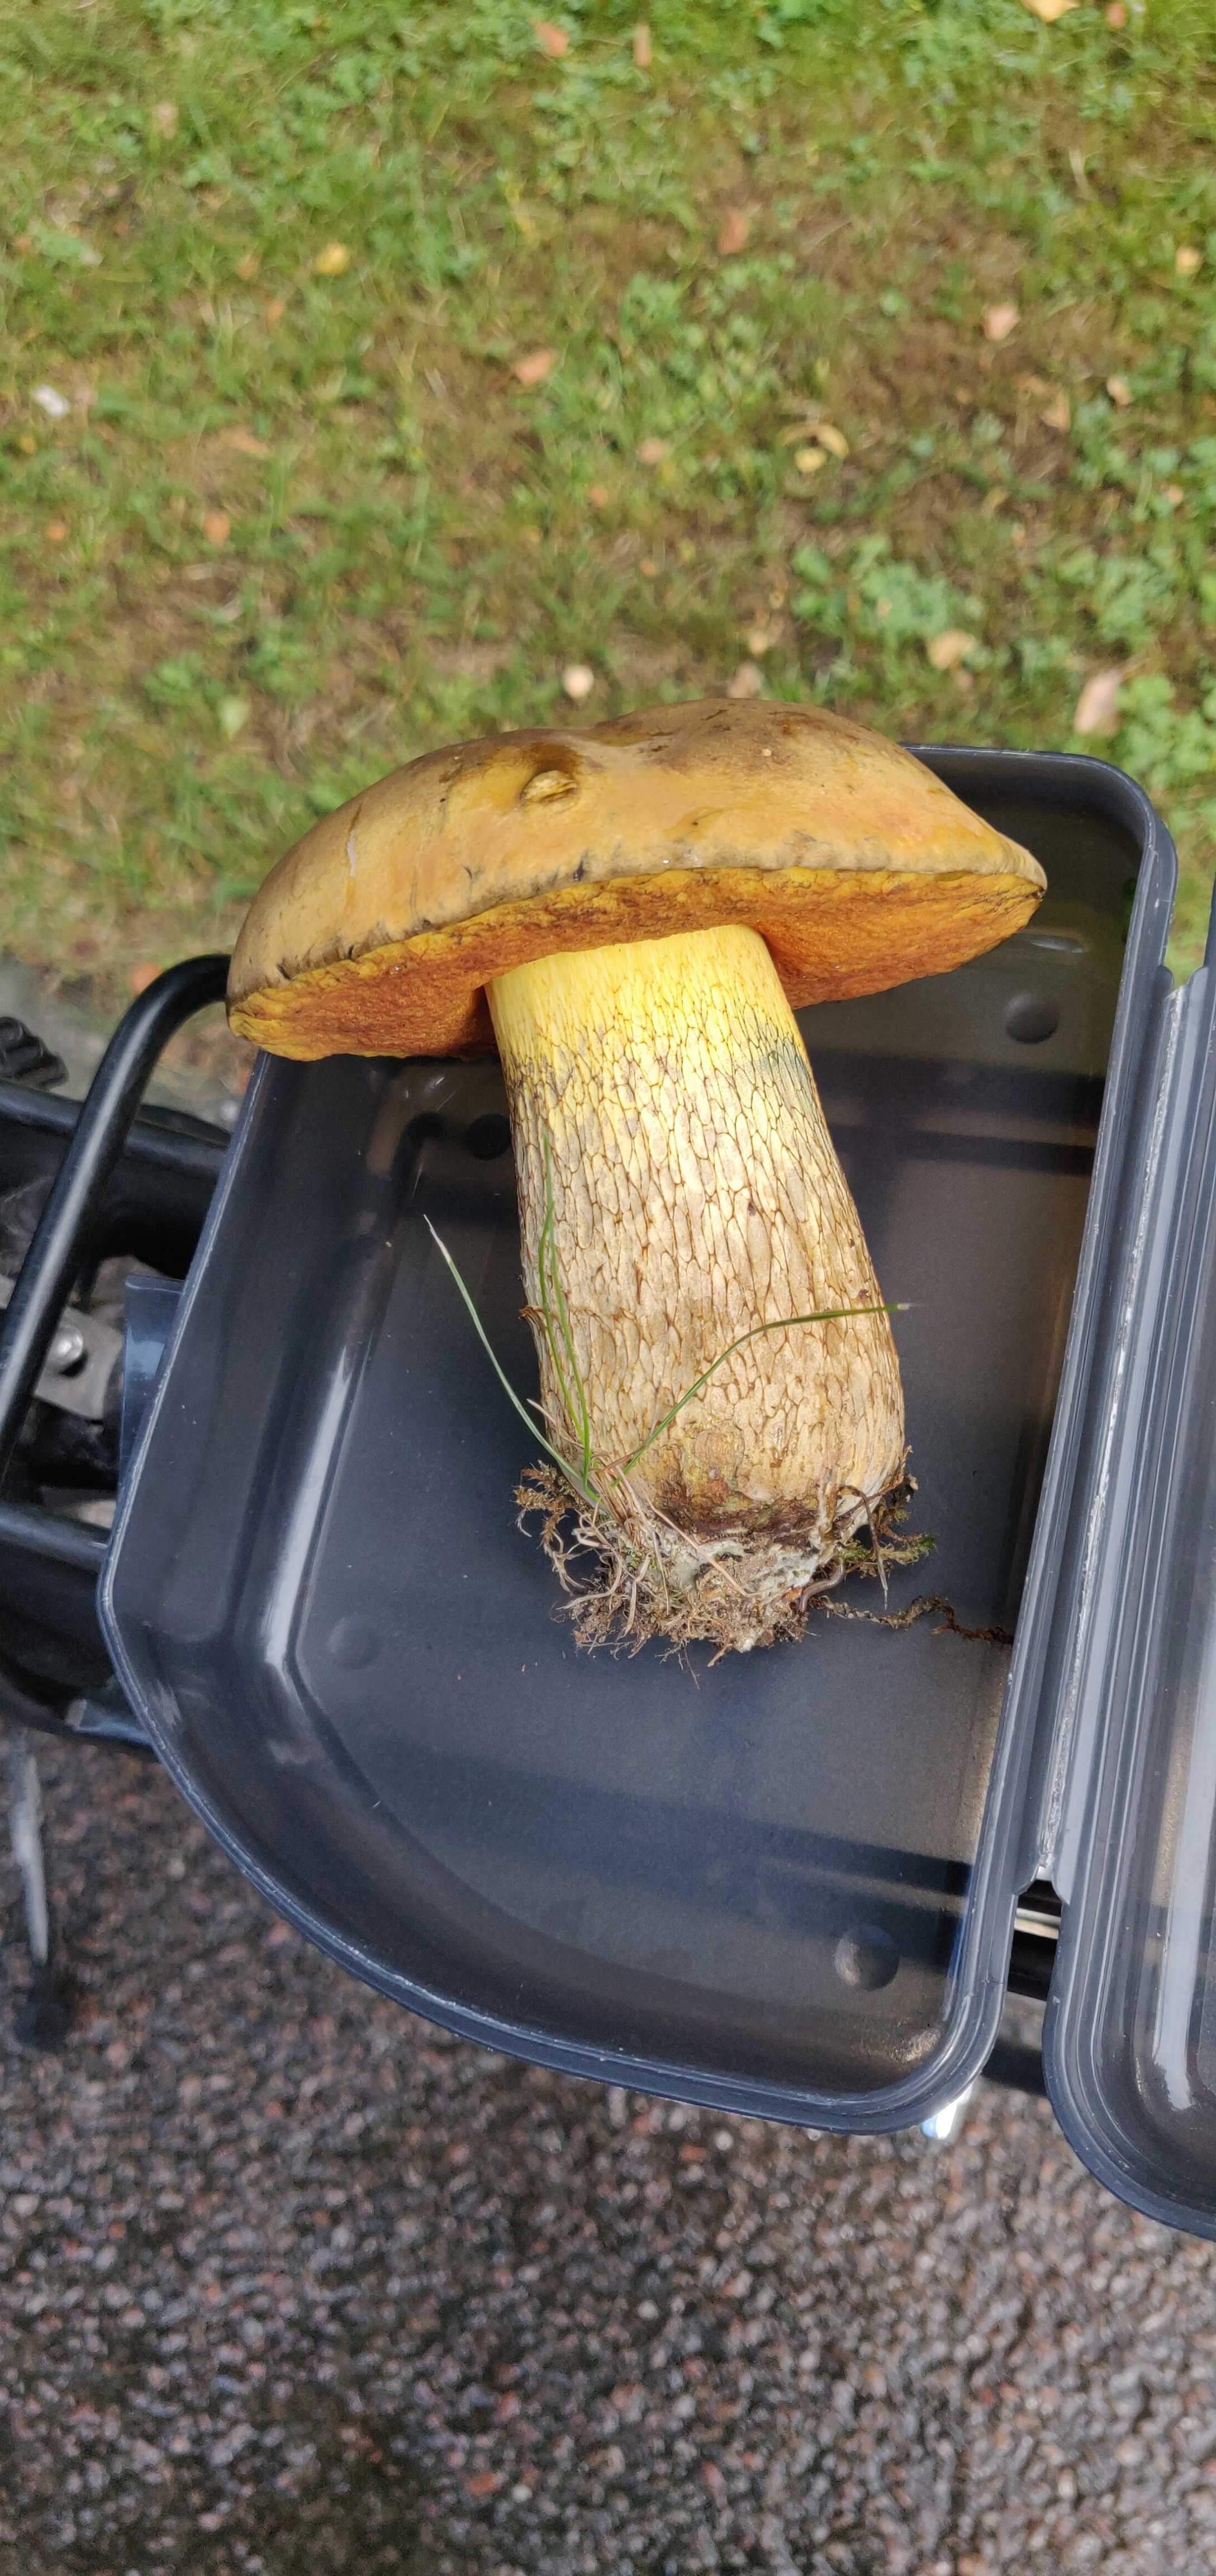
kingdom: Fungi
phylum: Basidiomycota
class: Agaricomycetes
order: Boletales
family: Boletaceae
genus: Suillellus
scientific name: Suillellus luridus
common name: netstokket indigorørhat
